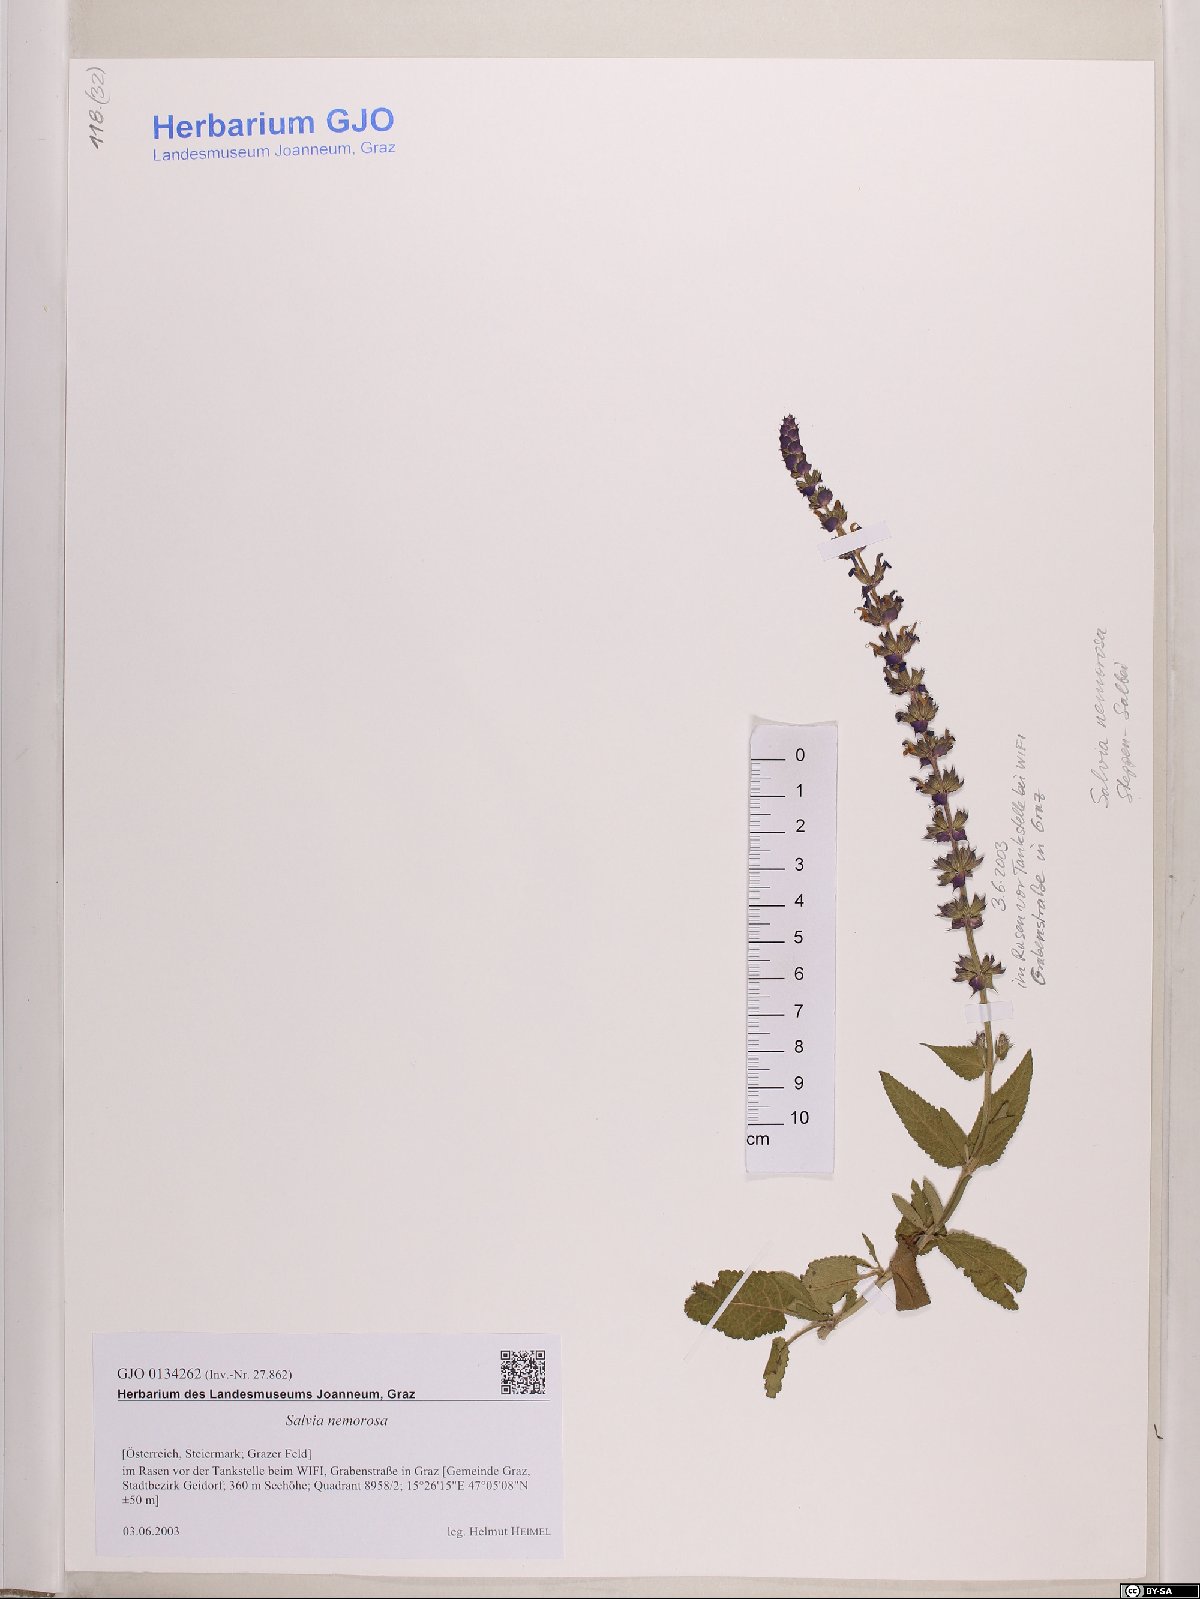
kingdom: Plantae
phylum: Tracheophyta
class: Magnoliopsida
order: Lamiales
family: Lamiaceae
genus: Salvia
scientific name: Salvia nemorosa
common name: Balkan clary
